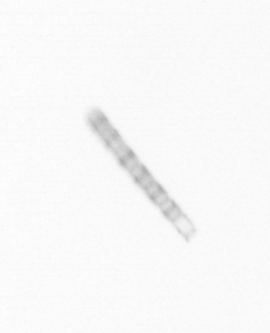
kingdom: Chromista
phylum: Ochrophyta
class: Bacillariophyceae
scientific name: Bacillariophyceae
